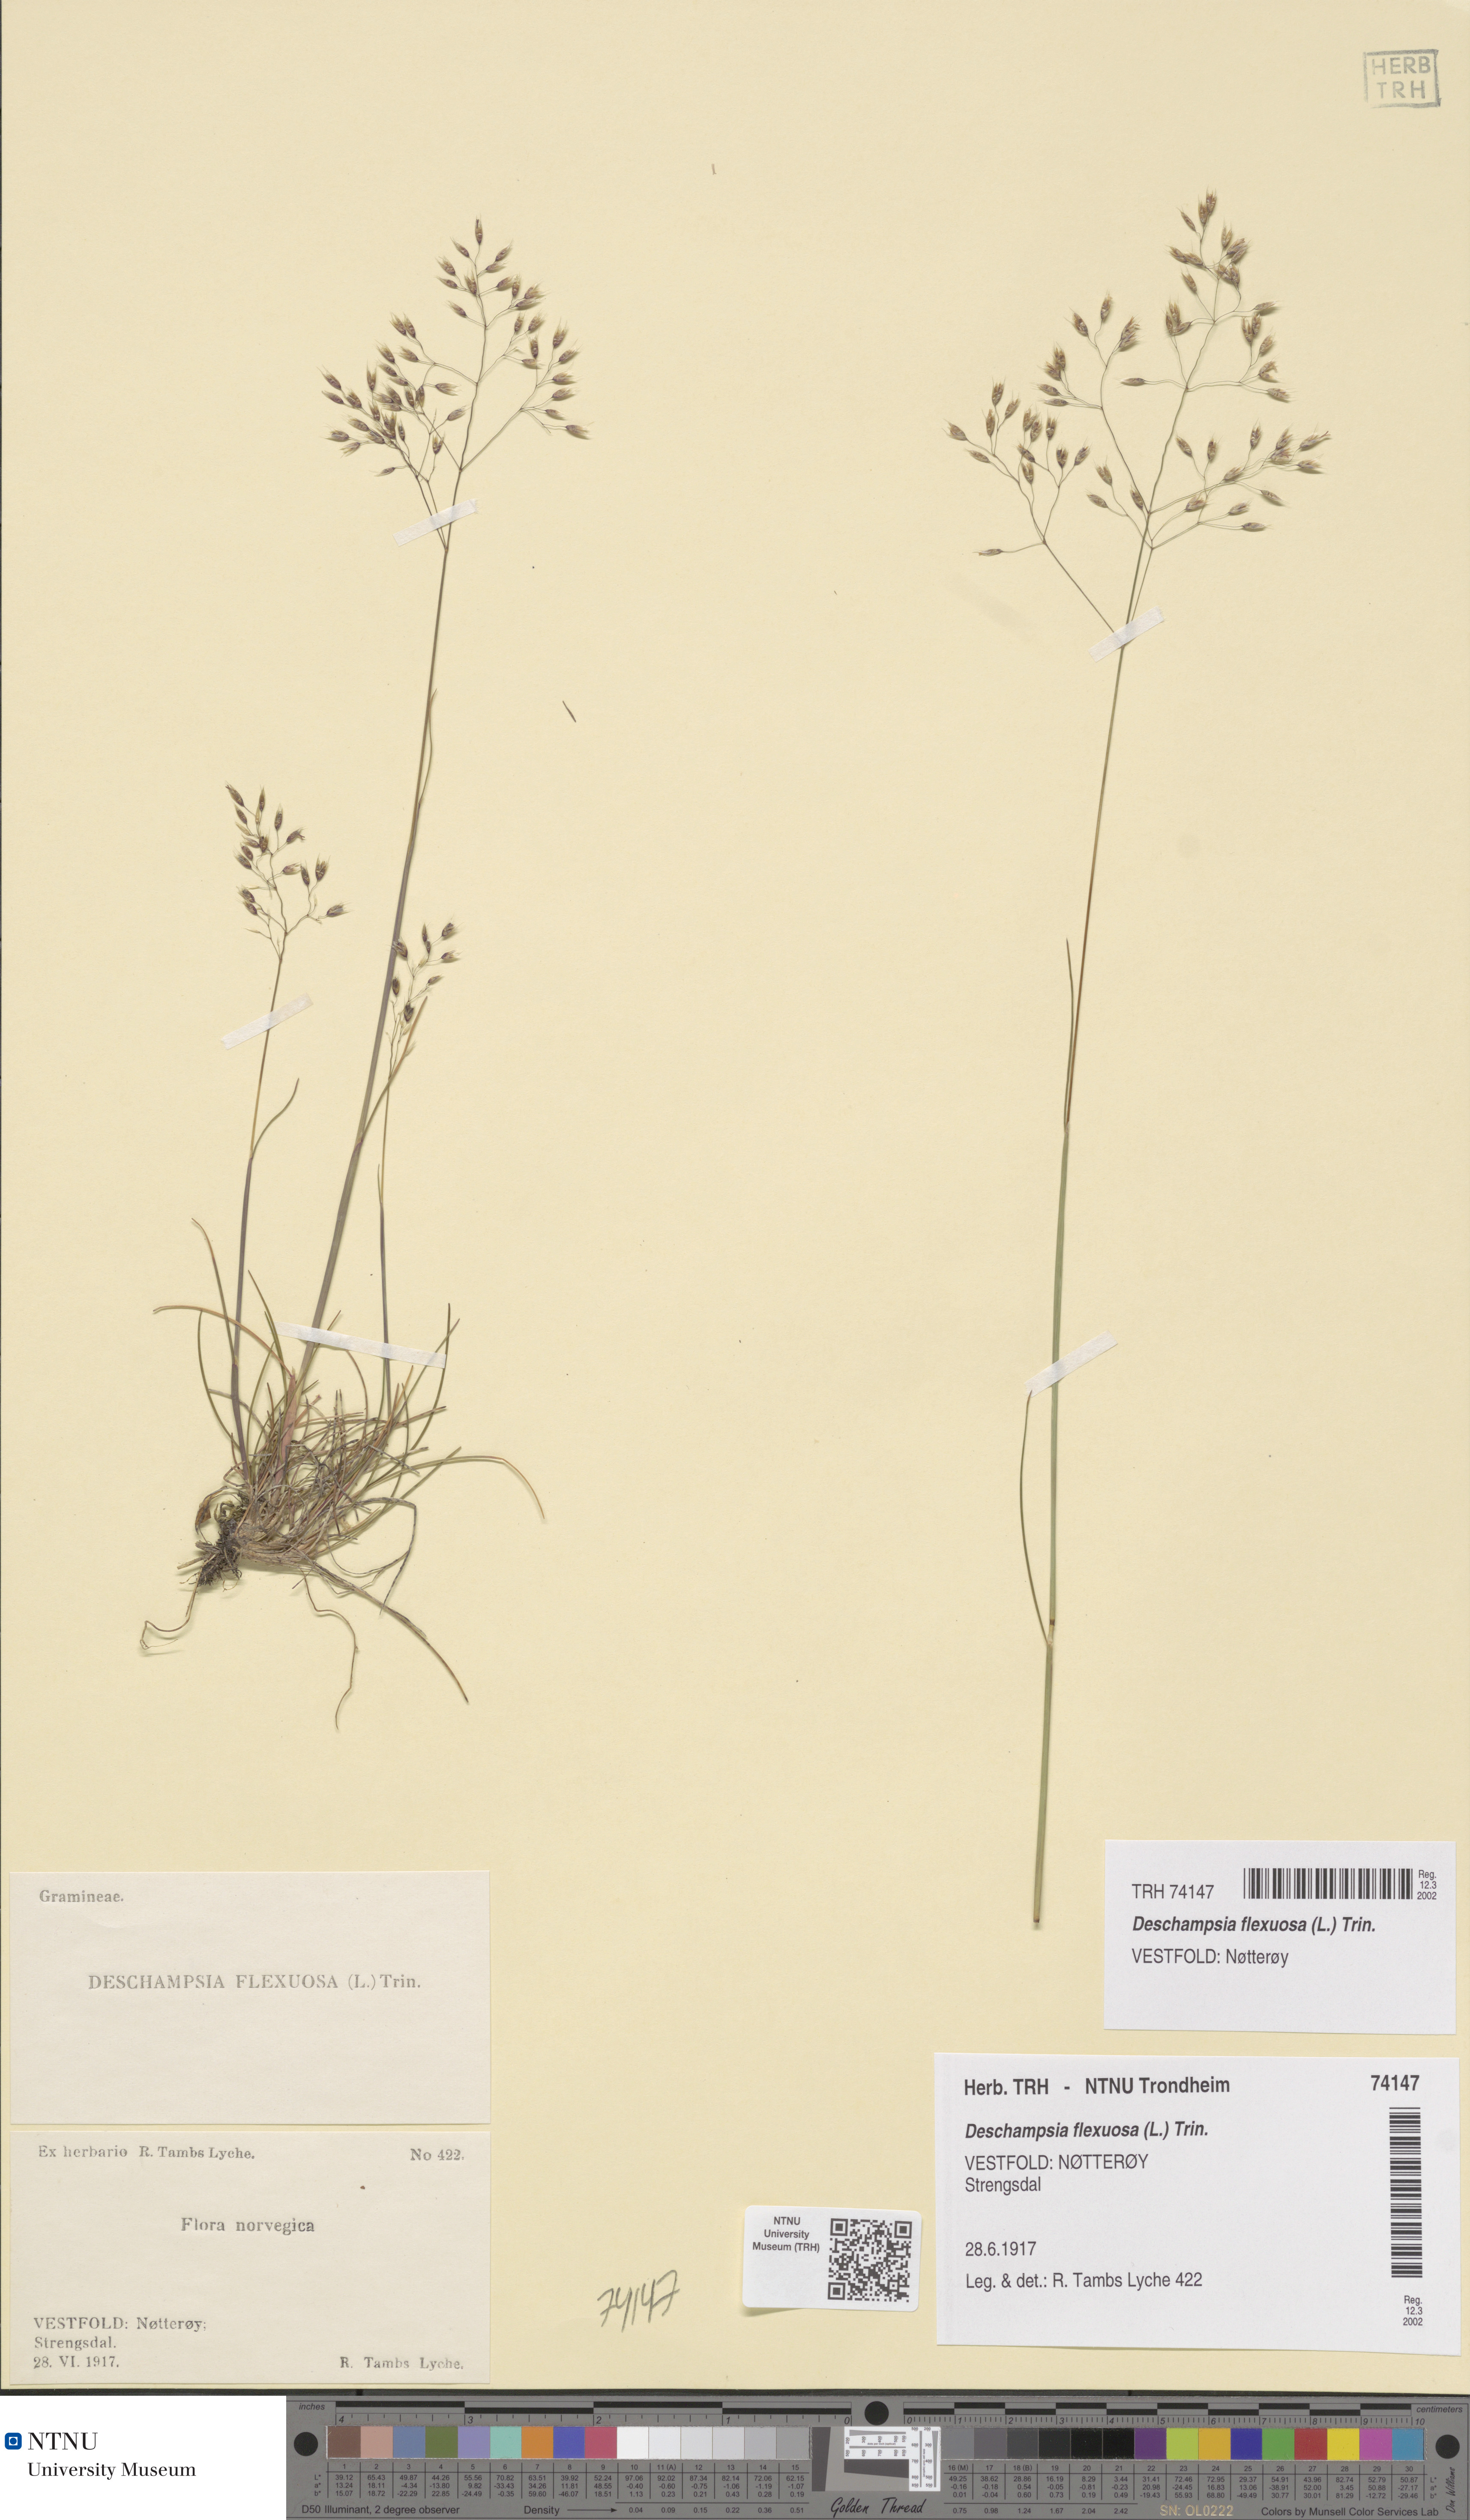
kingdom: Plantae
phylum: Tracheophyta
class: Liliopsida
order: Poales
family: Poaceae
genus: Avenella
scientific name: Avenella flexuosa
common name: Wavy hairgrass
